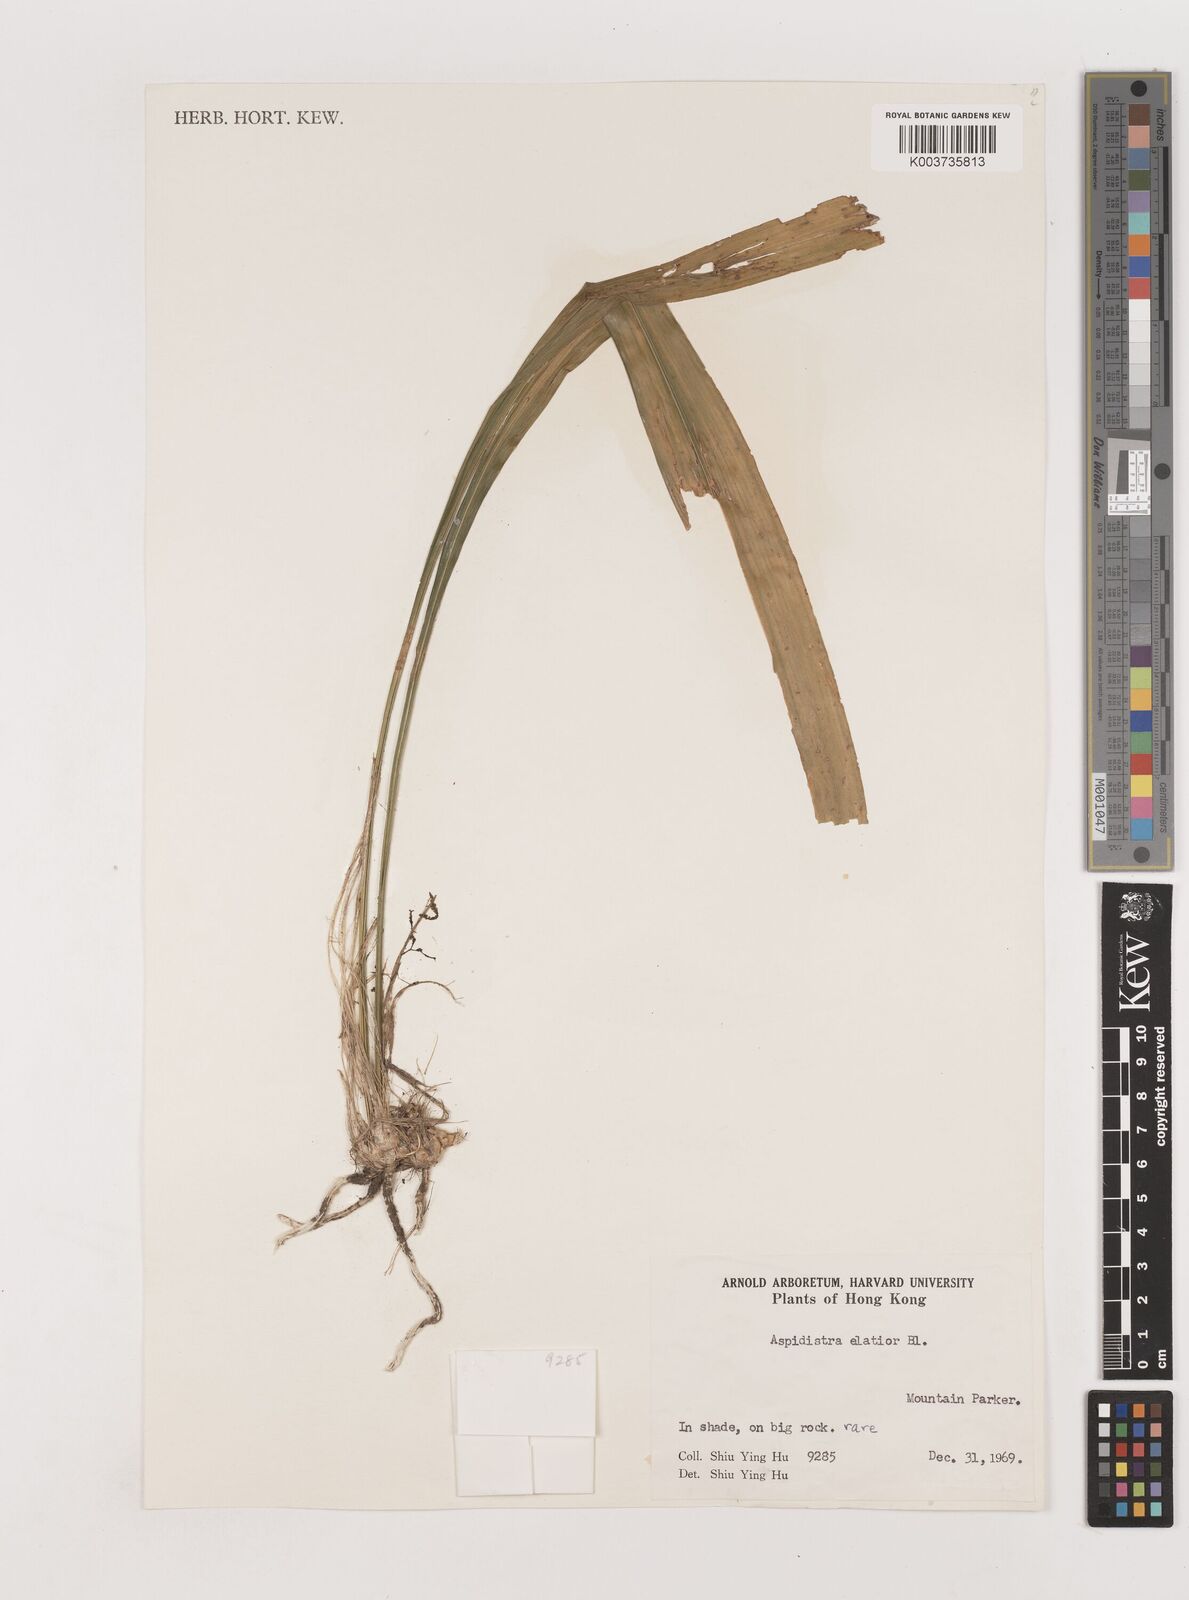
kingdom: Plantae
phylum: Tracheophyta
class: Liliopsida
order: Asparagales
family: Asparagaceae
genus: Aspidistra
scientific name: Aspidistra minutiflora
